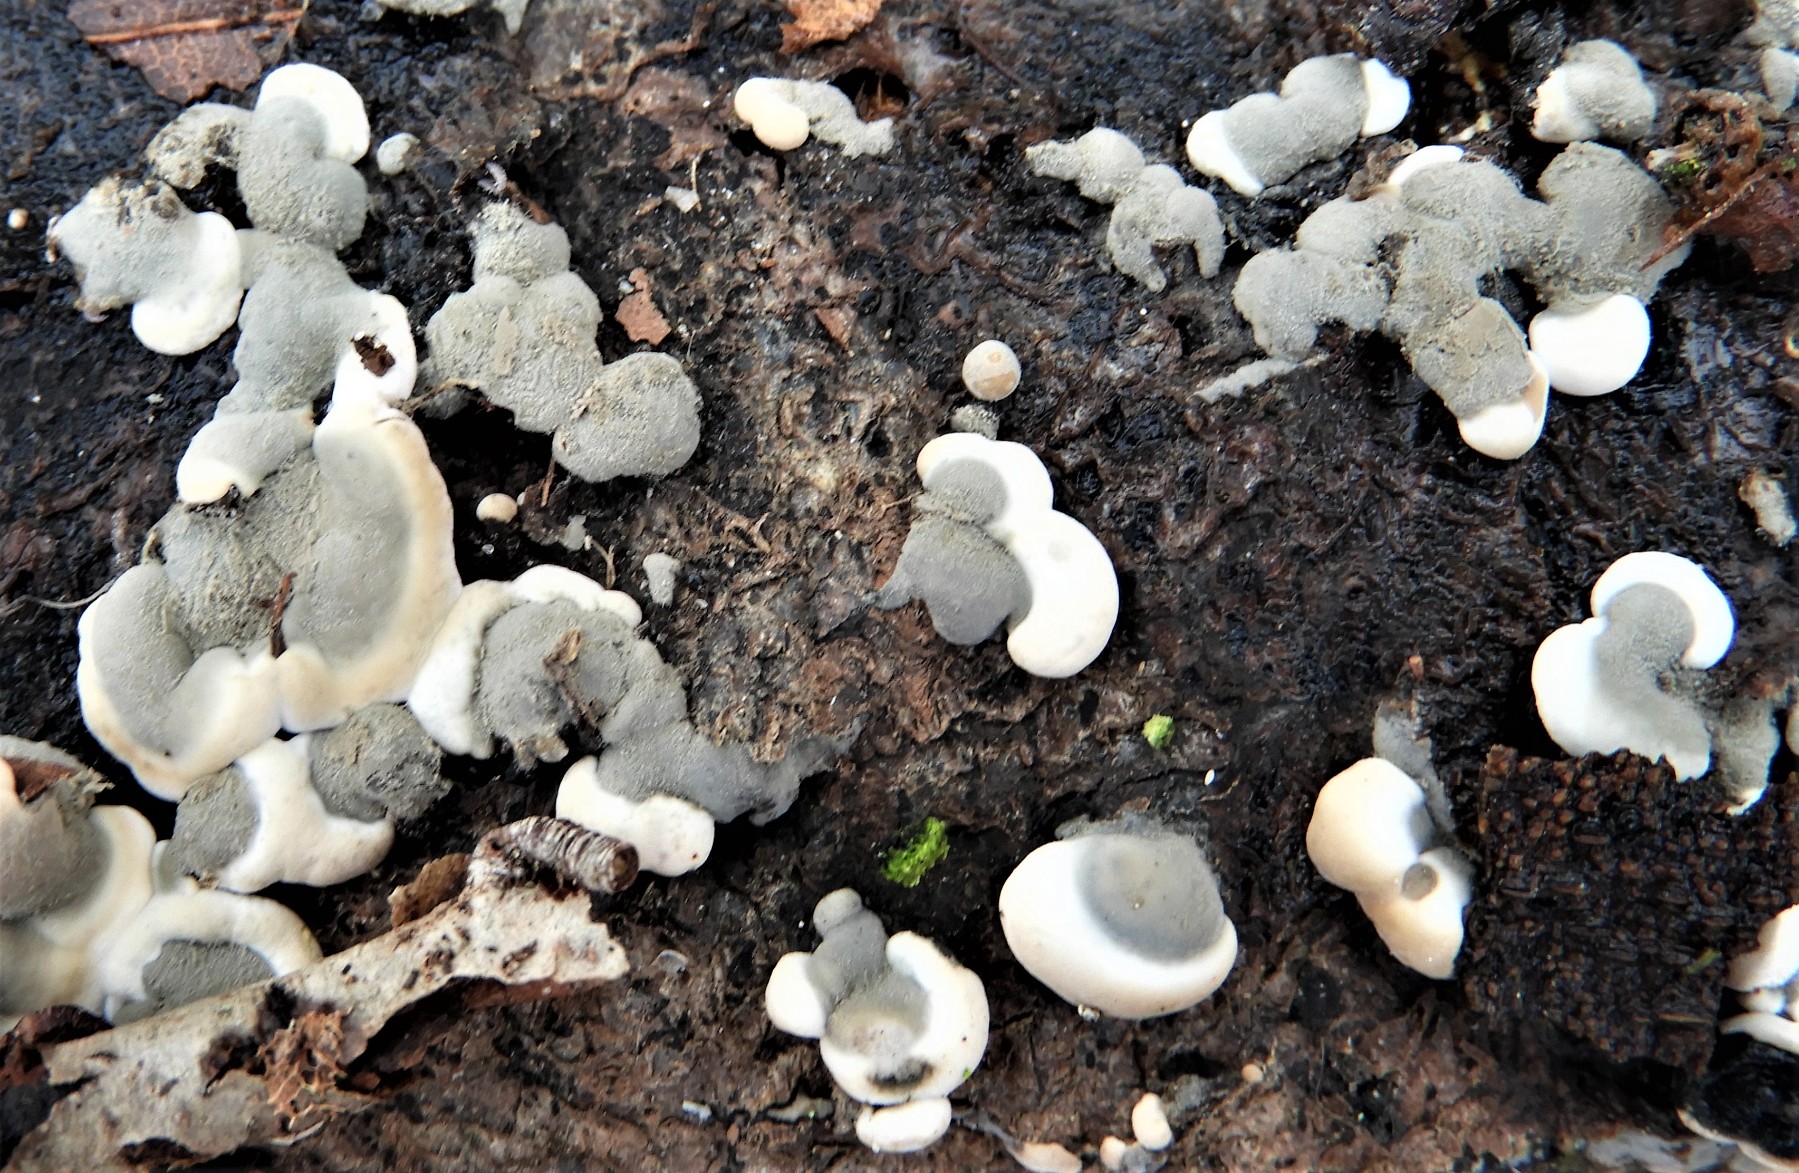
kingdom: Fungi
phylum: Ascomycota
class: Sordariomycetes
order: Xylariales
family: Xylariaceae
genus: Kretzschmaria
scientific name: Kretzschmaria deusta
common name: stor kulsvamp
